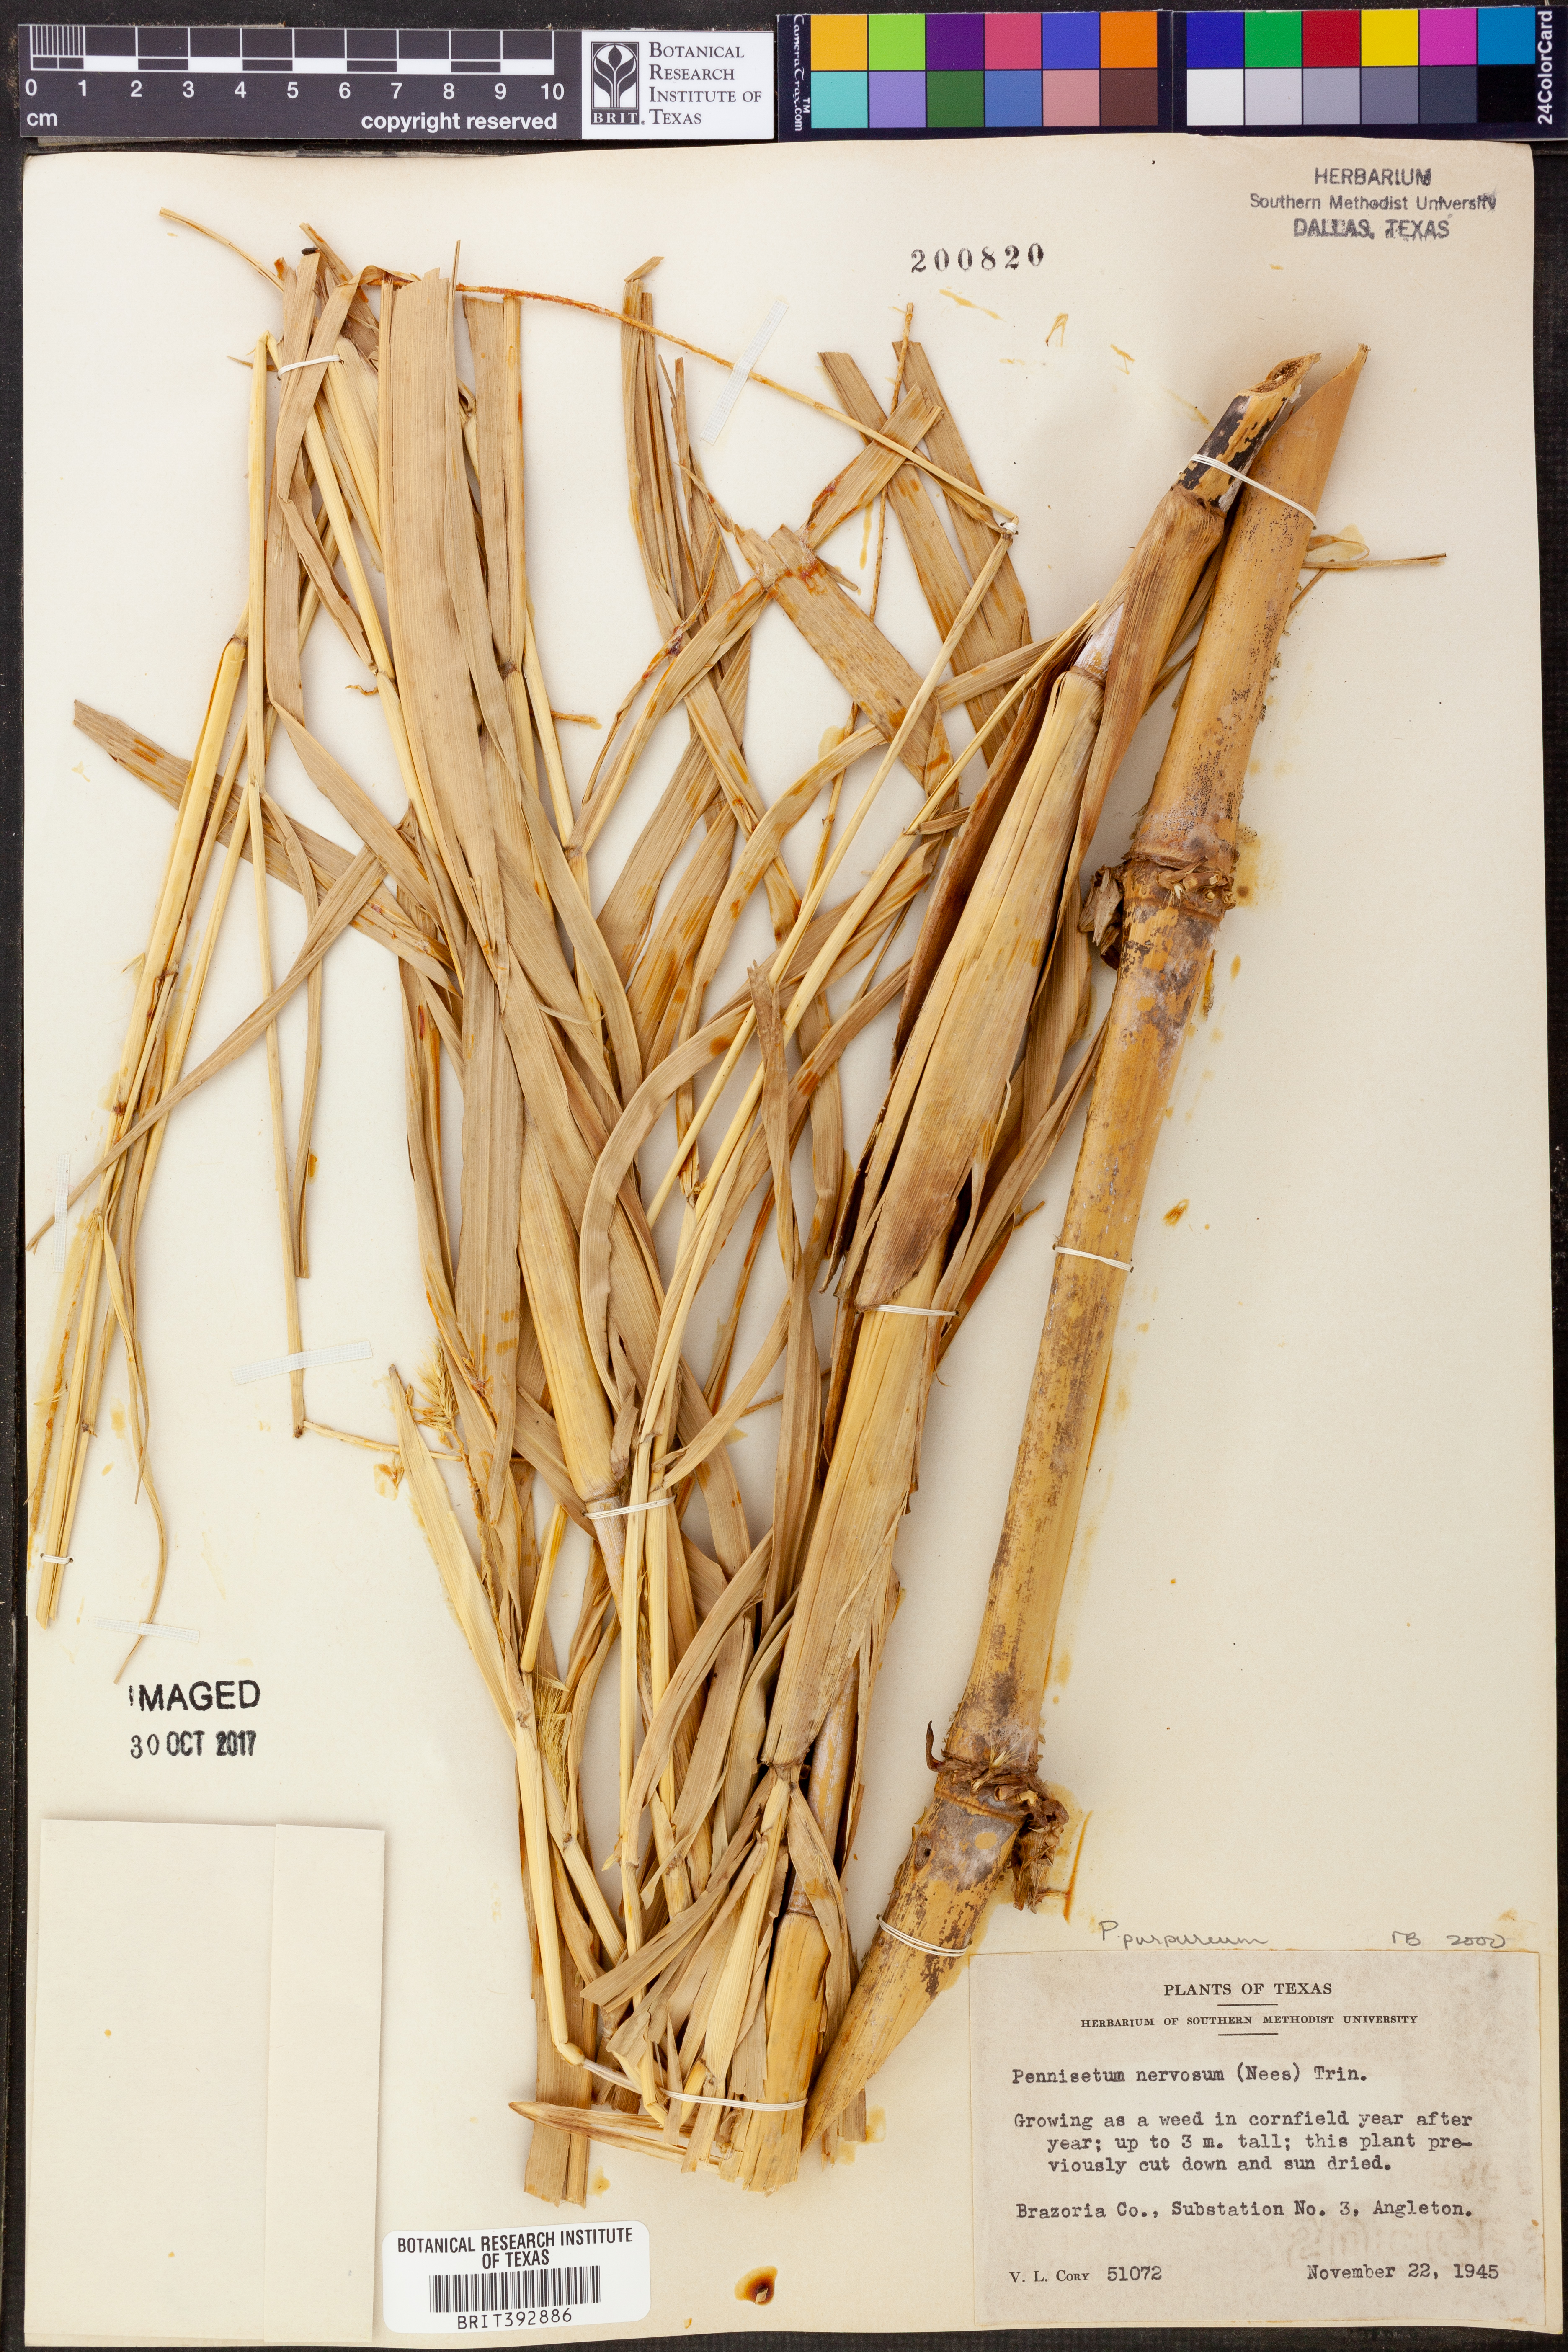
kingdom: Plantae
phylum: Tracheophyta
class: Liliopsida
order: Poales
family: Poaceae
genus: Cenchrus
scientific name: Cenchrus purpureus
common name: Elephant grass
